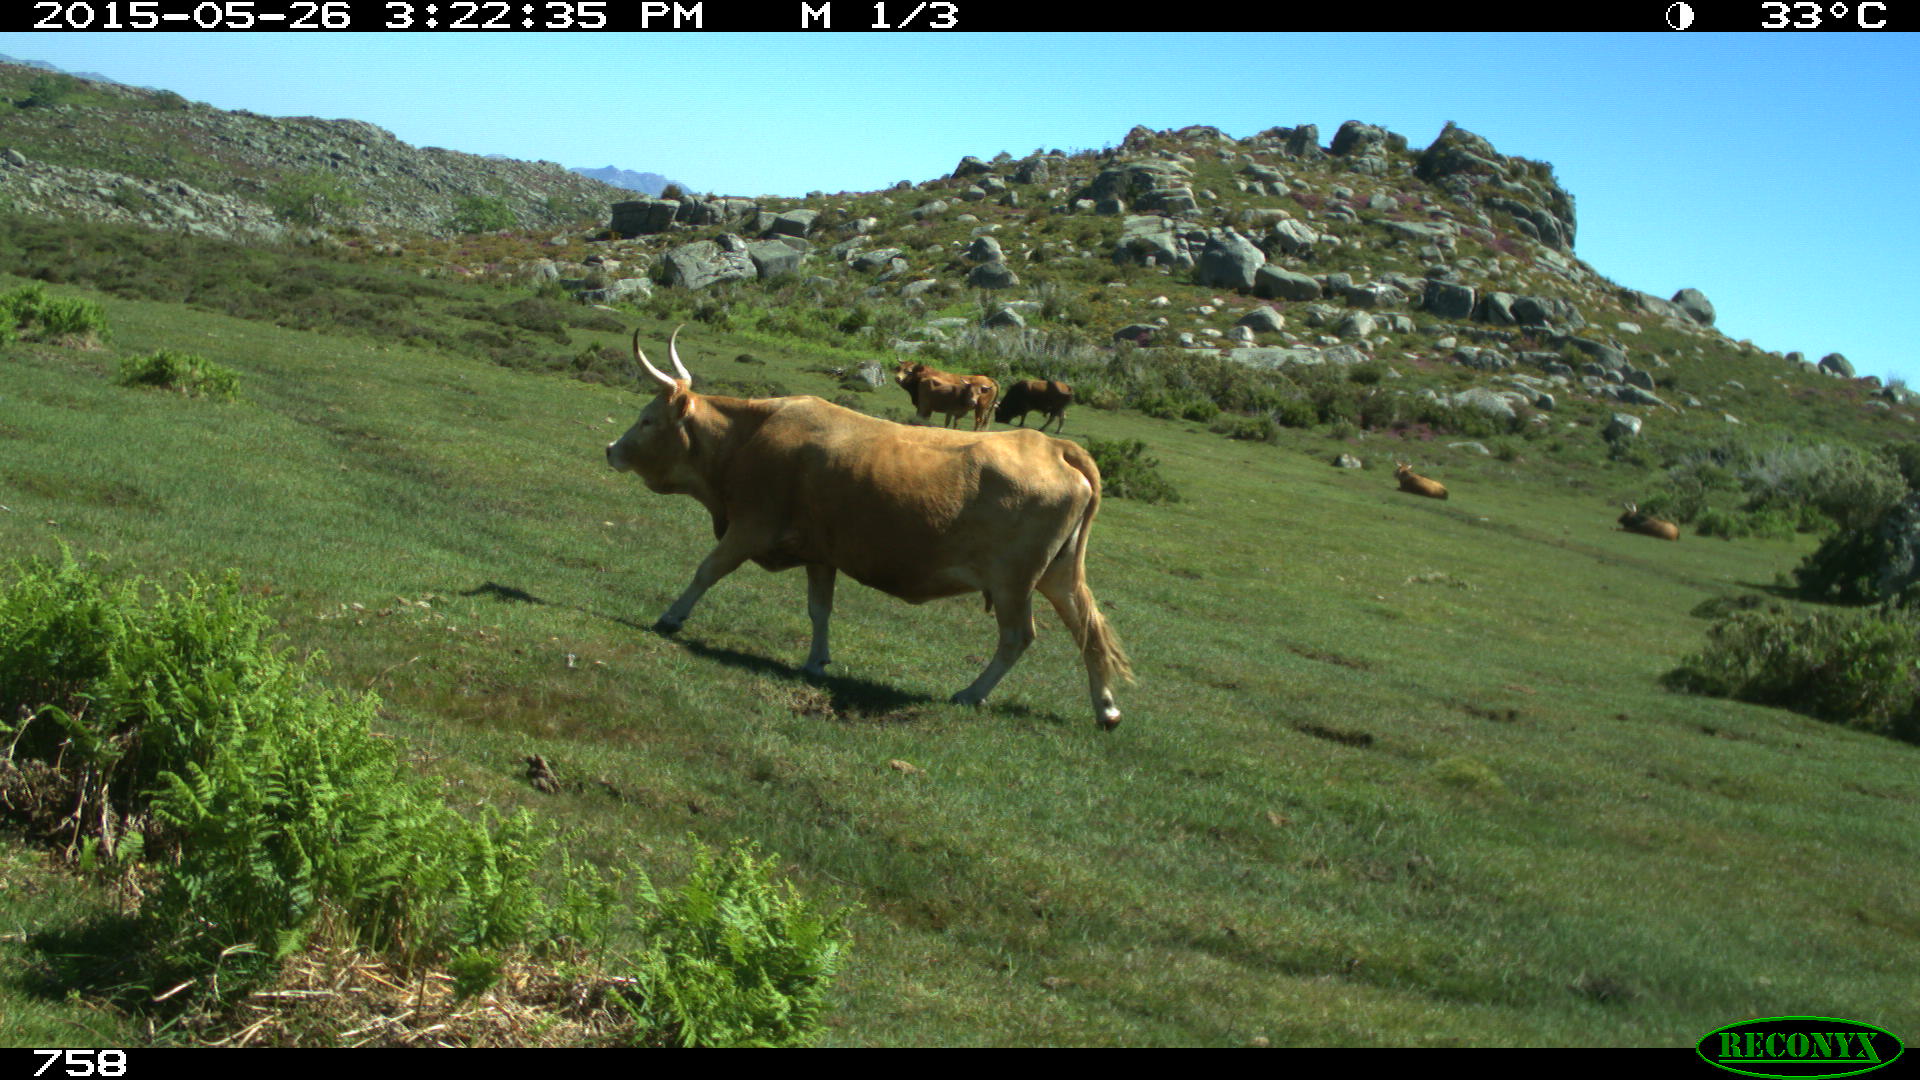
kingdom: Animalia
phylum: Chordata
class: Mammalia
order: Artiodactyla
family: Bovidae
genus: Bos
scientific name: Bos taurus
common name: Domesticated cattle
